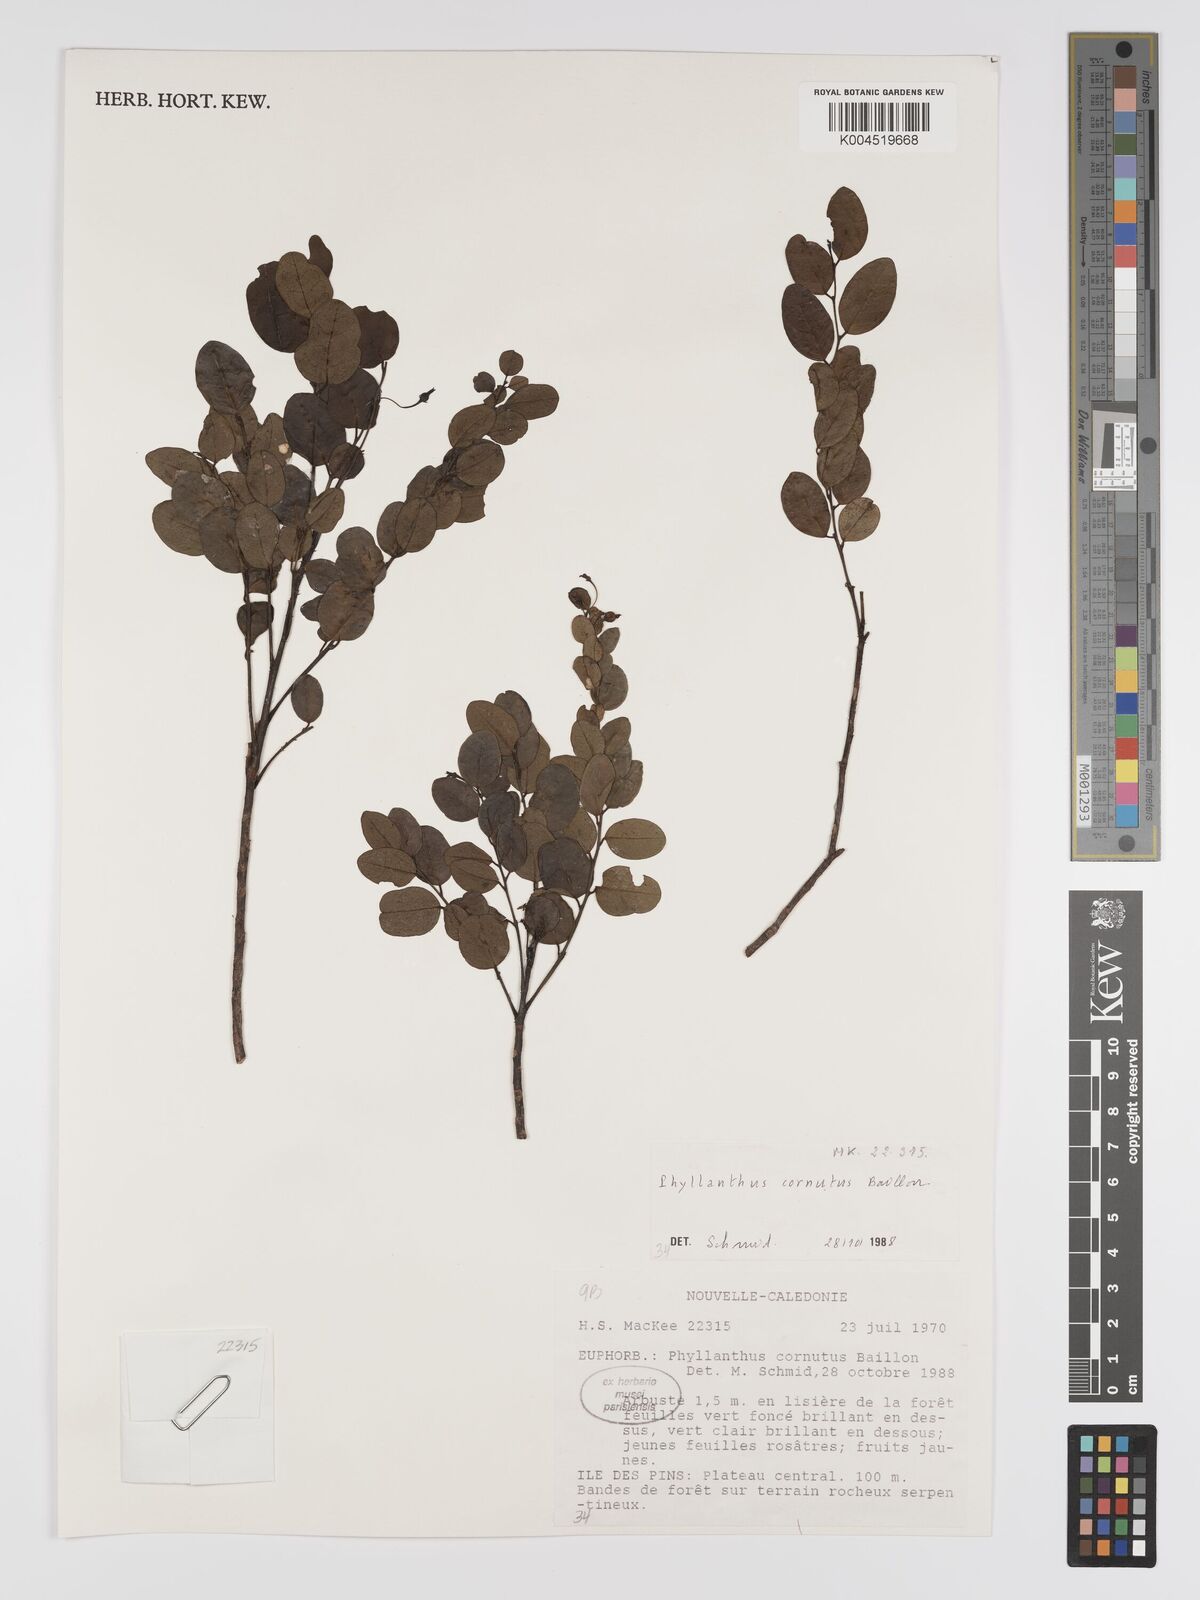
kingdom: Plantae
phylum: Tracheophyta
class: Magnoliopsida
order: Malpighiales
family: Phyllanthaceae
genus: Phyllanthus
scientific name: Phyllanthus cornutus
